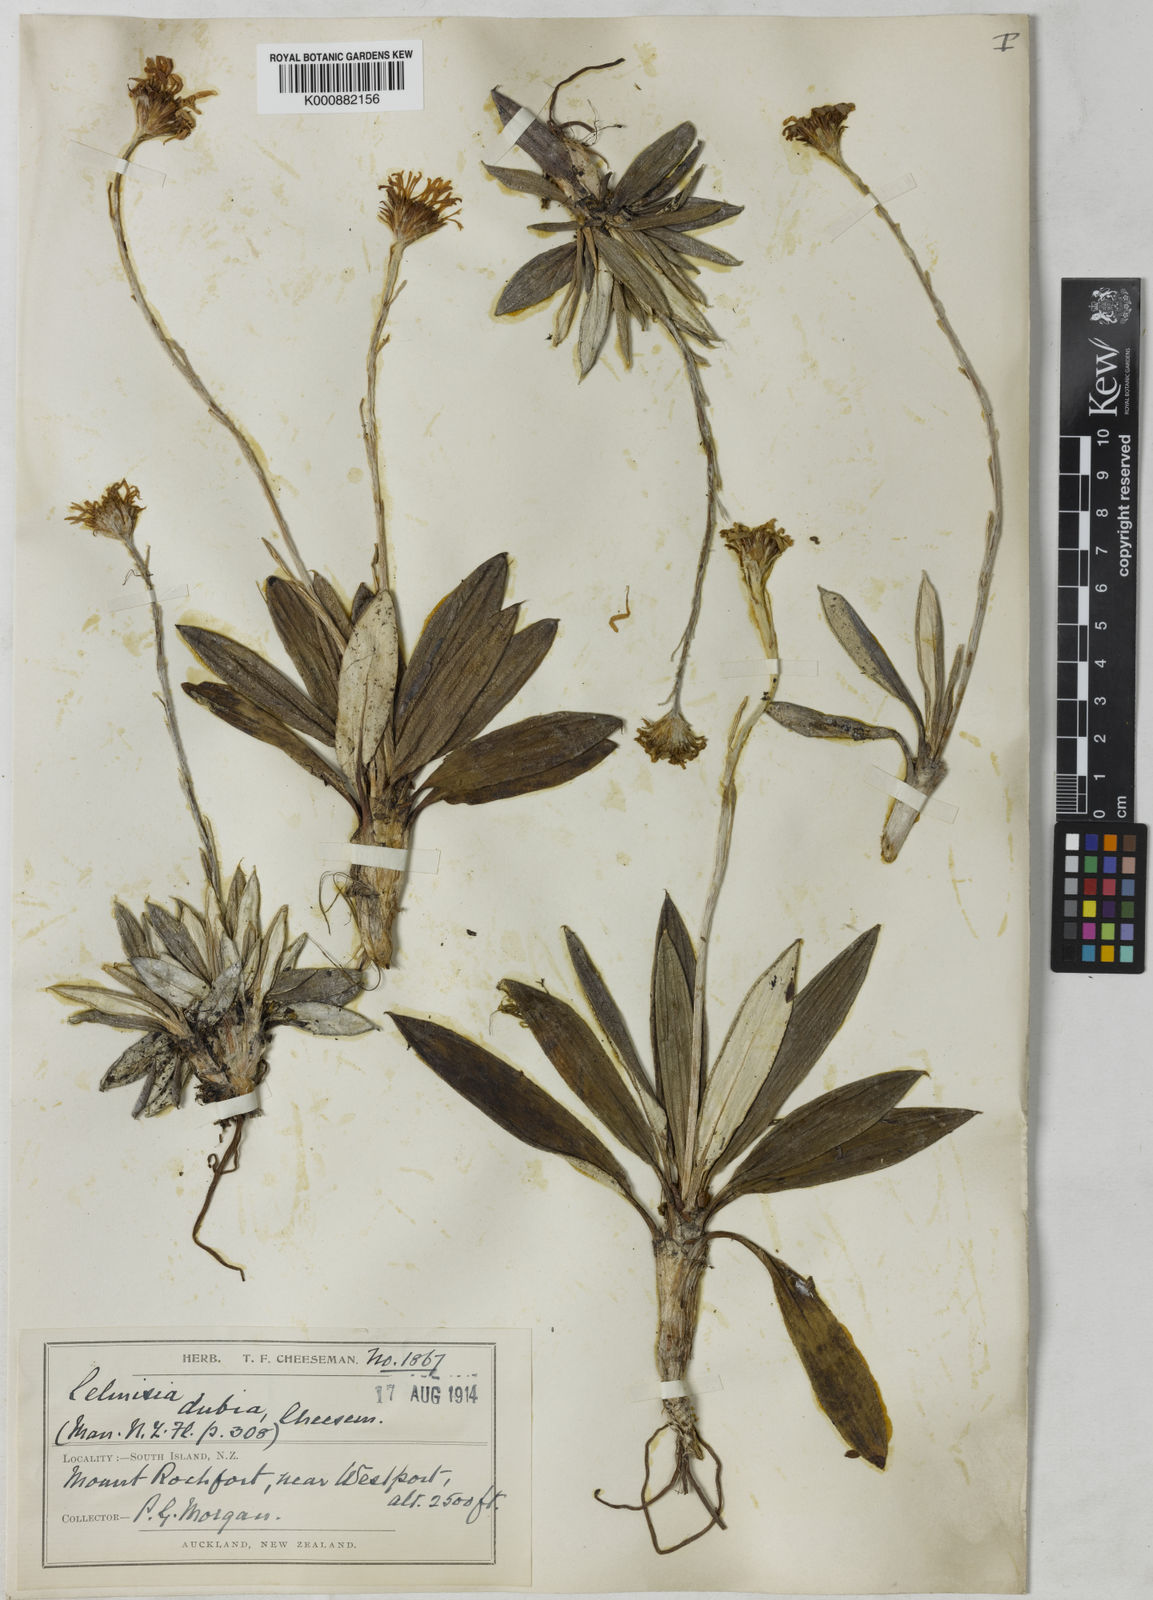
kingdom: Plantae
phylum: Tracheophyta
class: Magnoliopsida
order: Asterales
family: Asteraceae
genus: Celmisia
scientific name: Celmisia dubia
